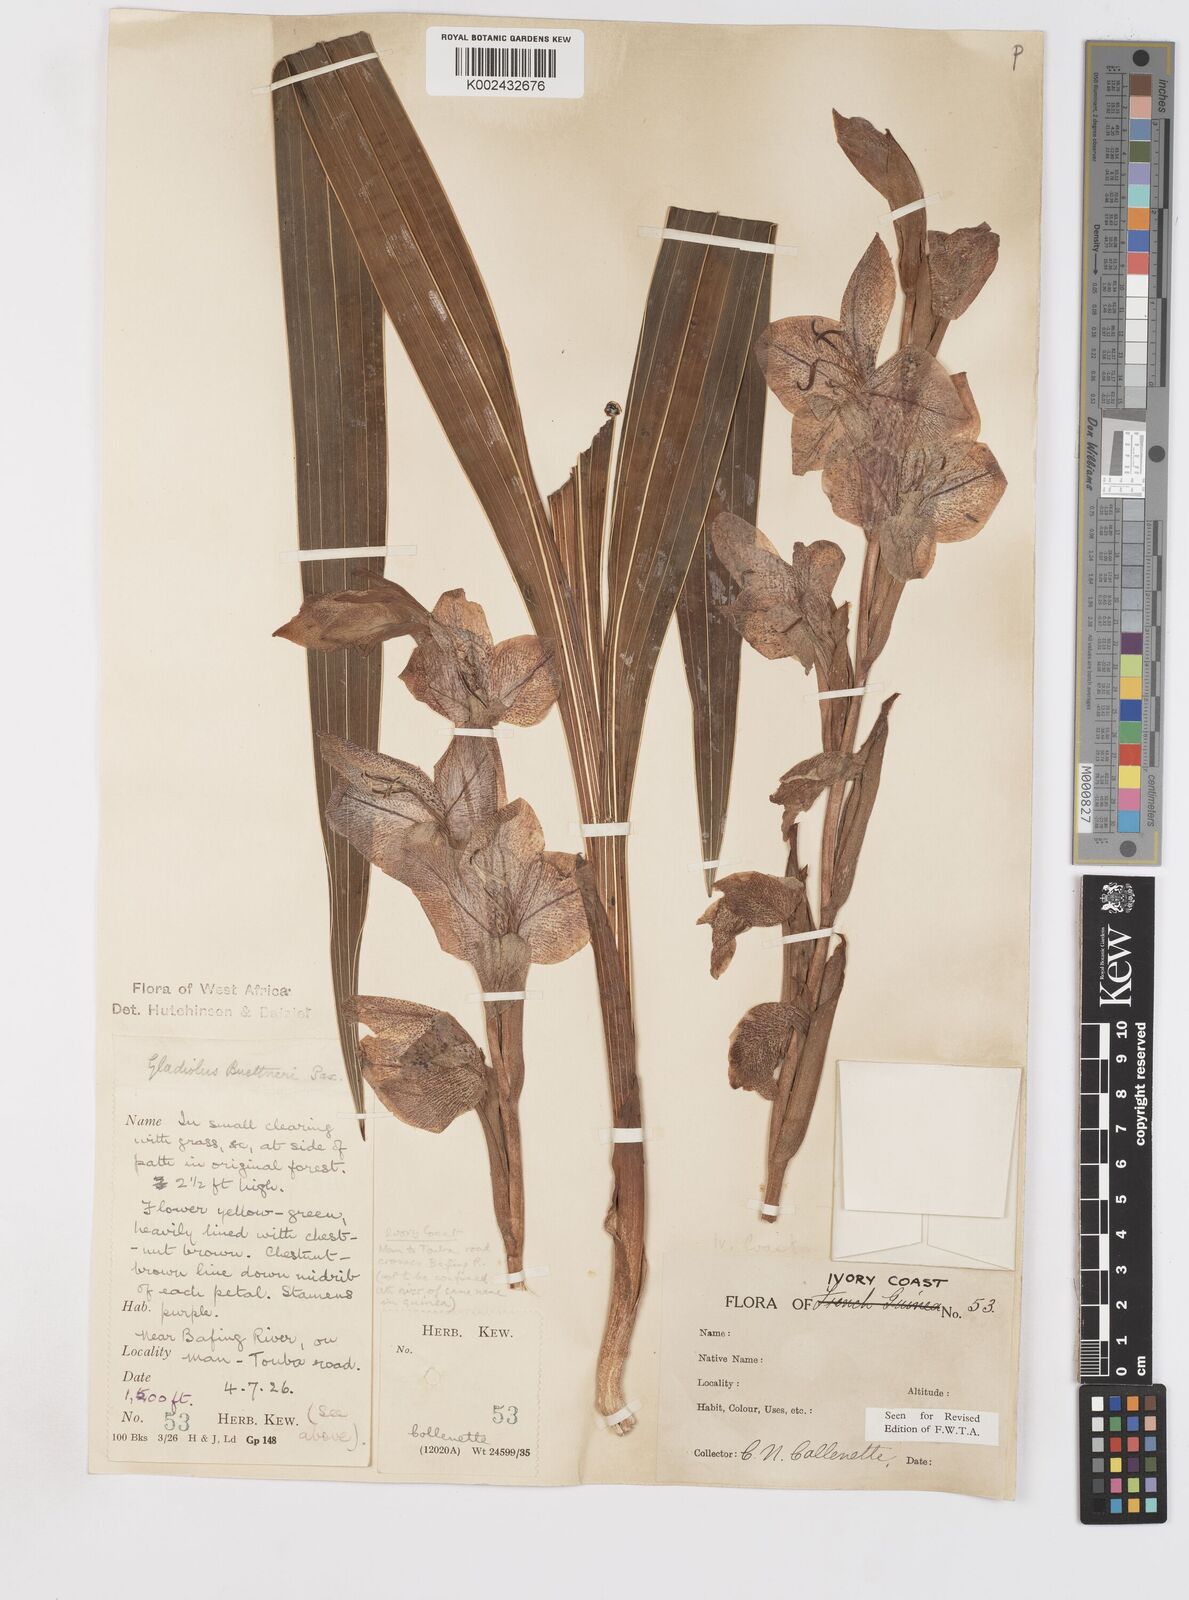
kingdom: Plantae
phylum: Tracheophyta
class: Liliopsida
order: Asparagales
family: Iridaceae
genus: Gladiolus
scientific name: Gladiolus dalenii
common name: Cornflag
